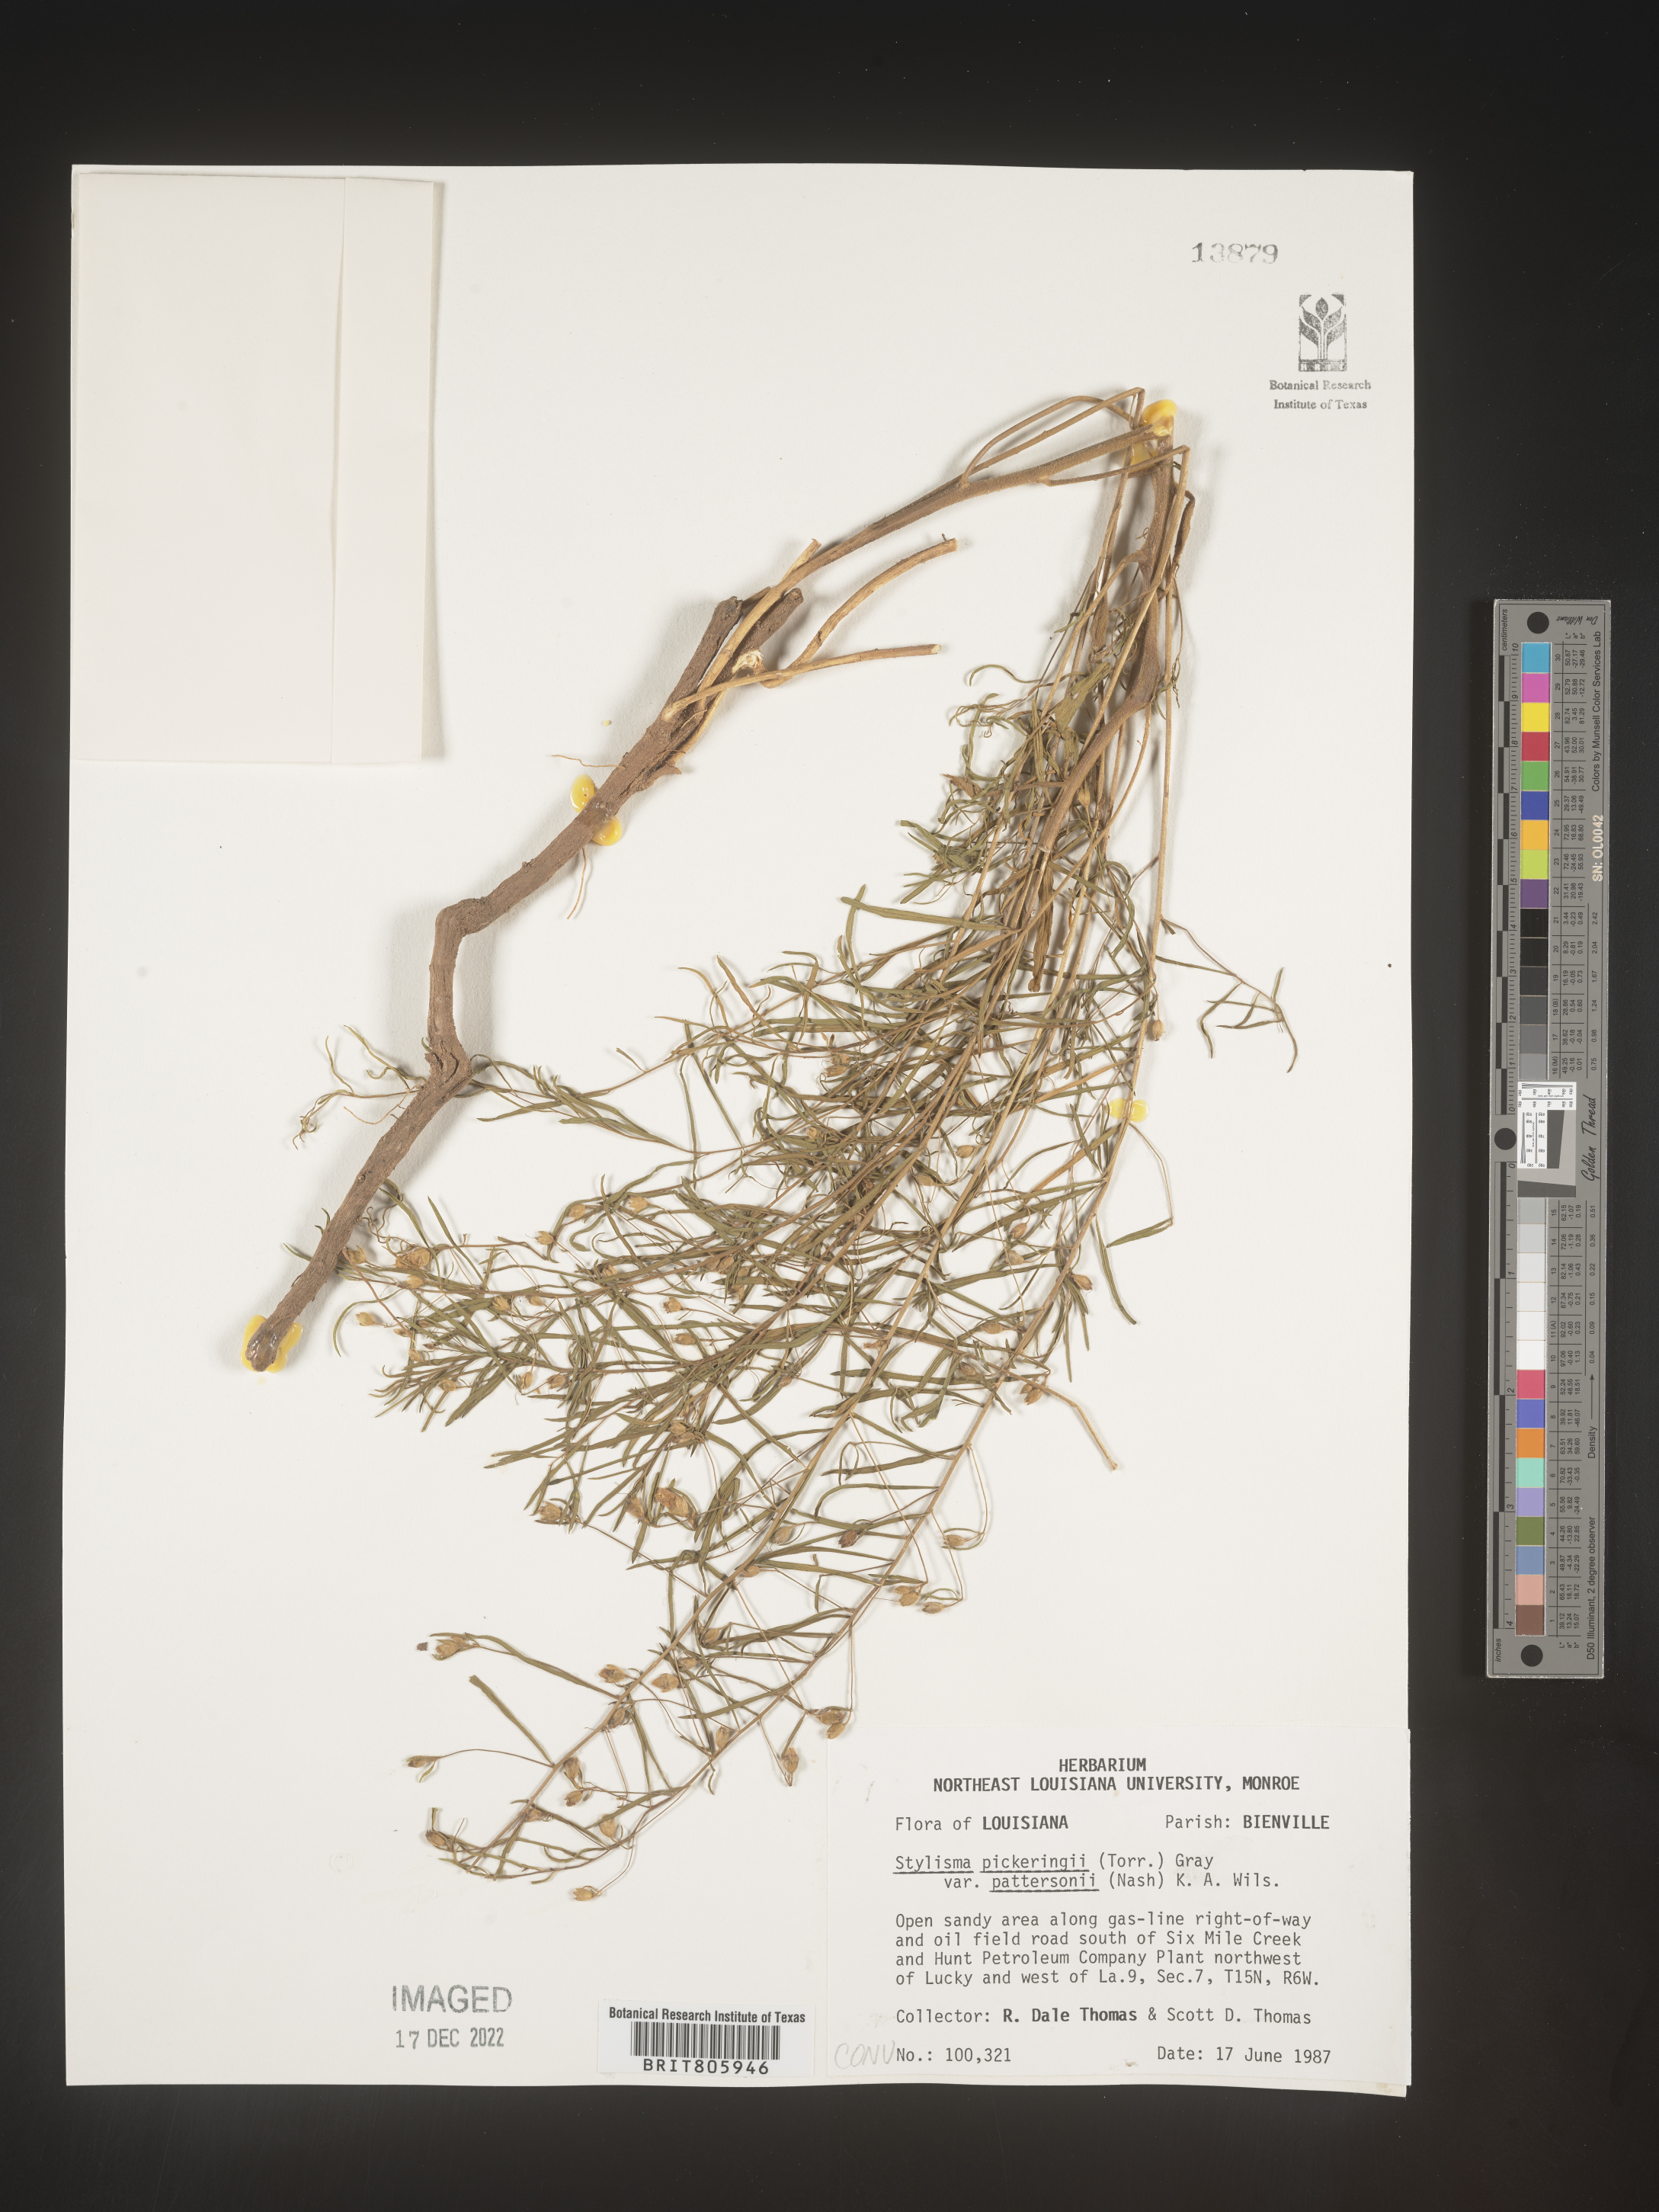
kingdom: Plantae
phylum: Tracheophyta
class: Magnoliopsida
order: Solanales
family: Convolvulaceae
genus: Stylisma
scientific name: Stylisma
